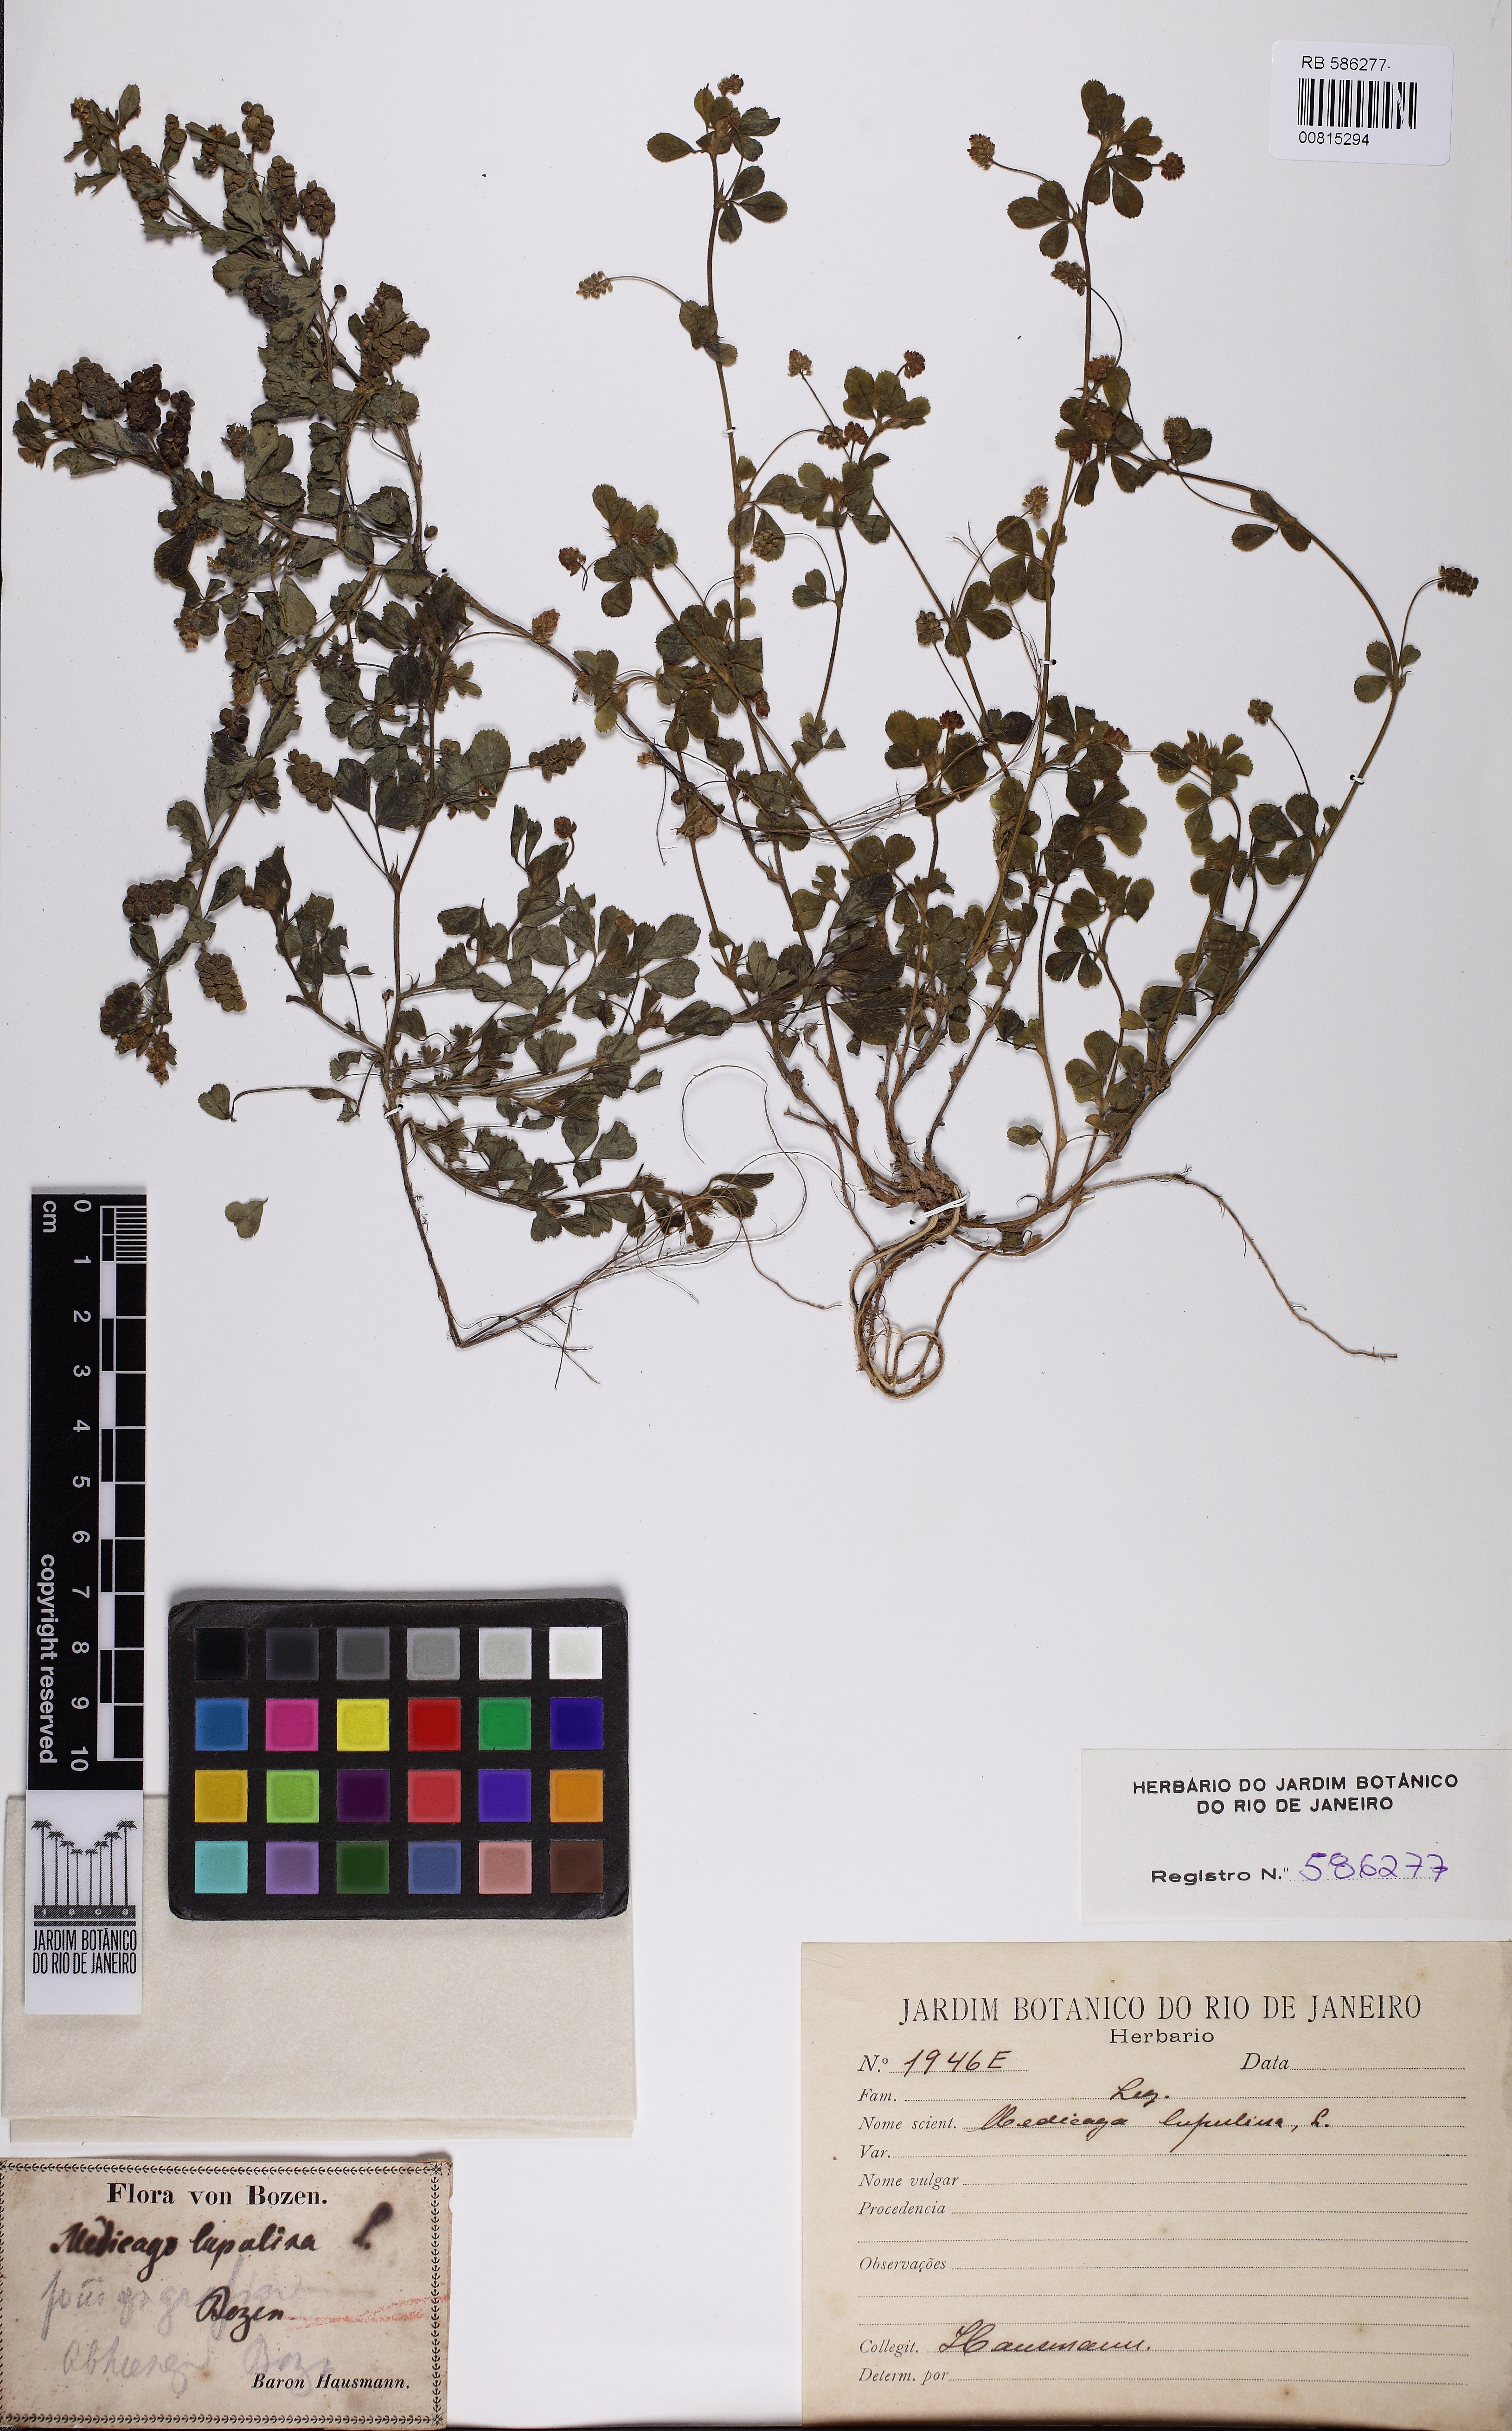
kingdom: Plantae
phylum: Tracheophyta
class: Magnoliopsida
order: Fabales
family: Fabaceae
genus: Medicago
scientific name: Medicago lupulina
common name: Black medick
